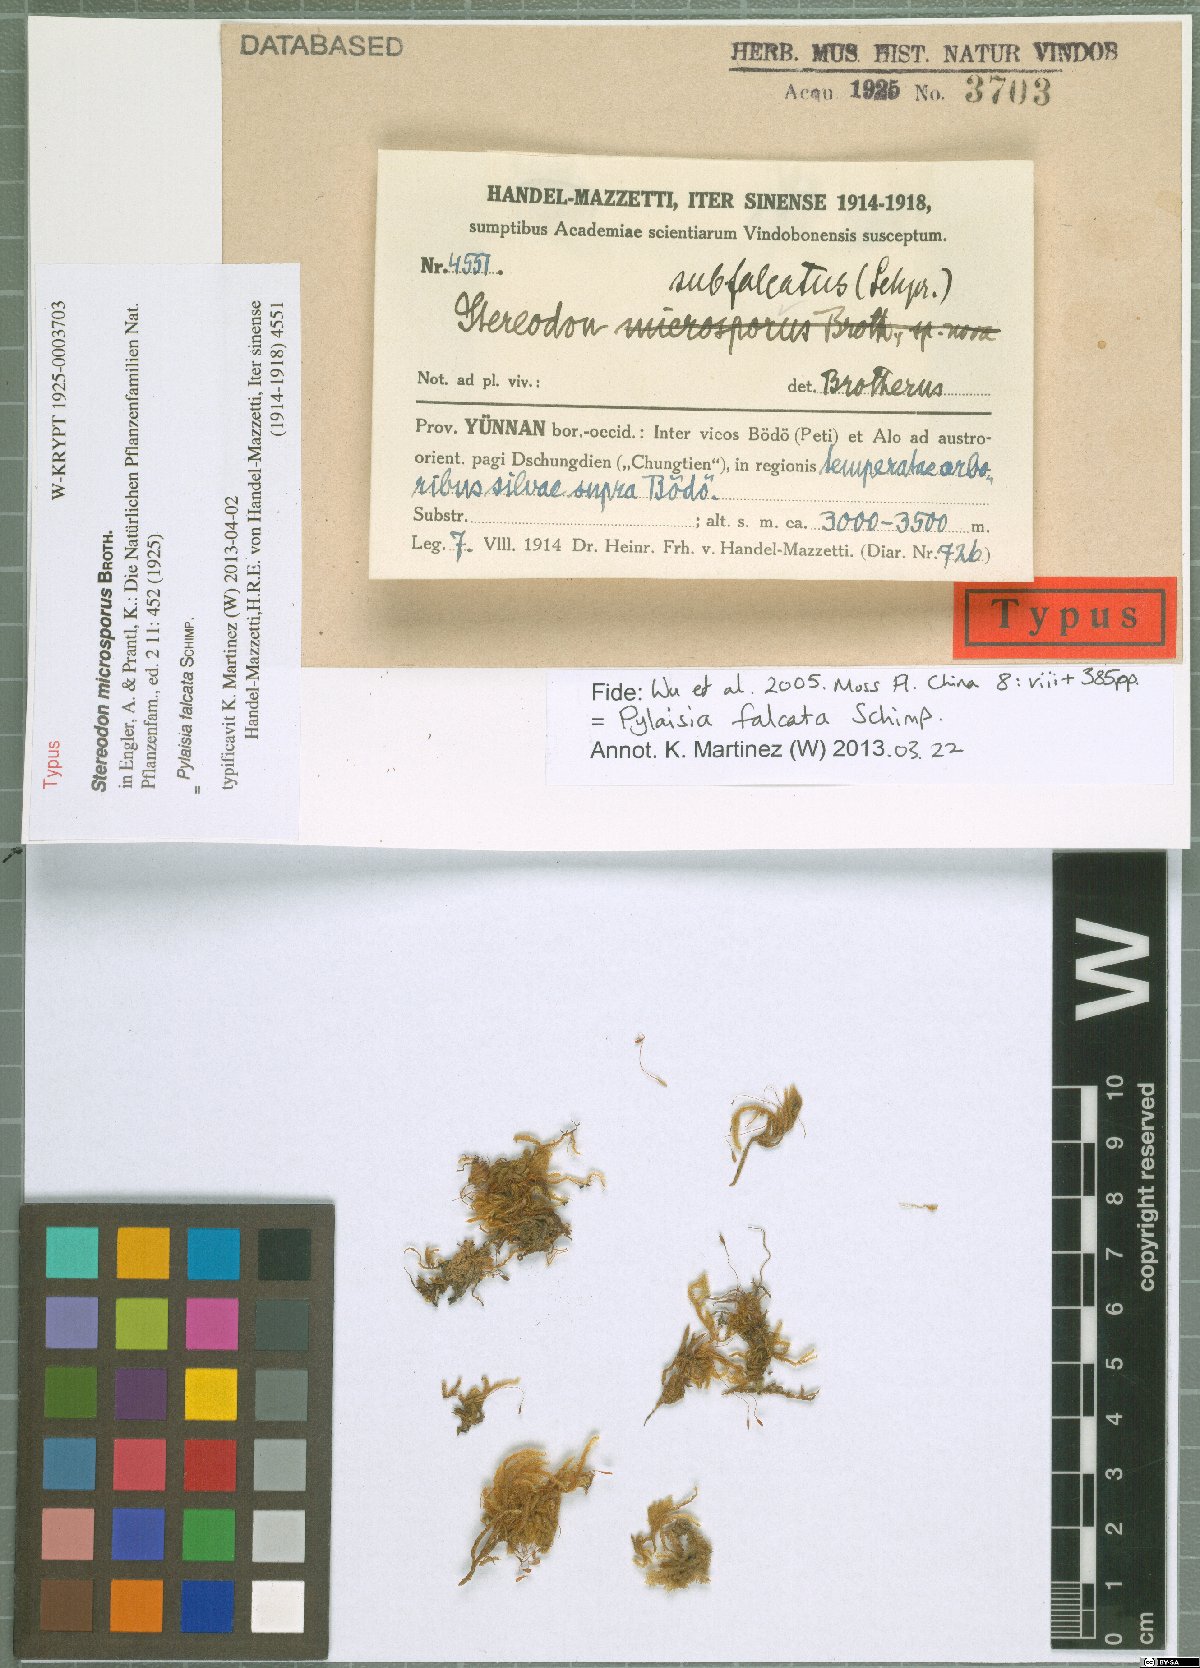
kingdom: Plantae
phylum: Bryophyta
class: Bryopsida
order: Hypnales
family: Pylaisiaceae
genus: Pylaisia
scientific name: Pylaisia falcata
